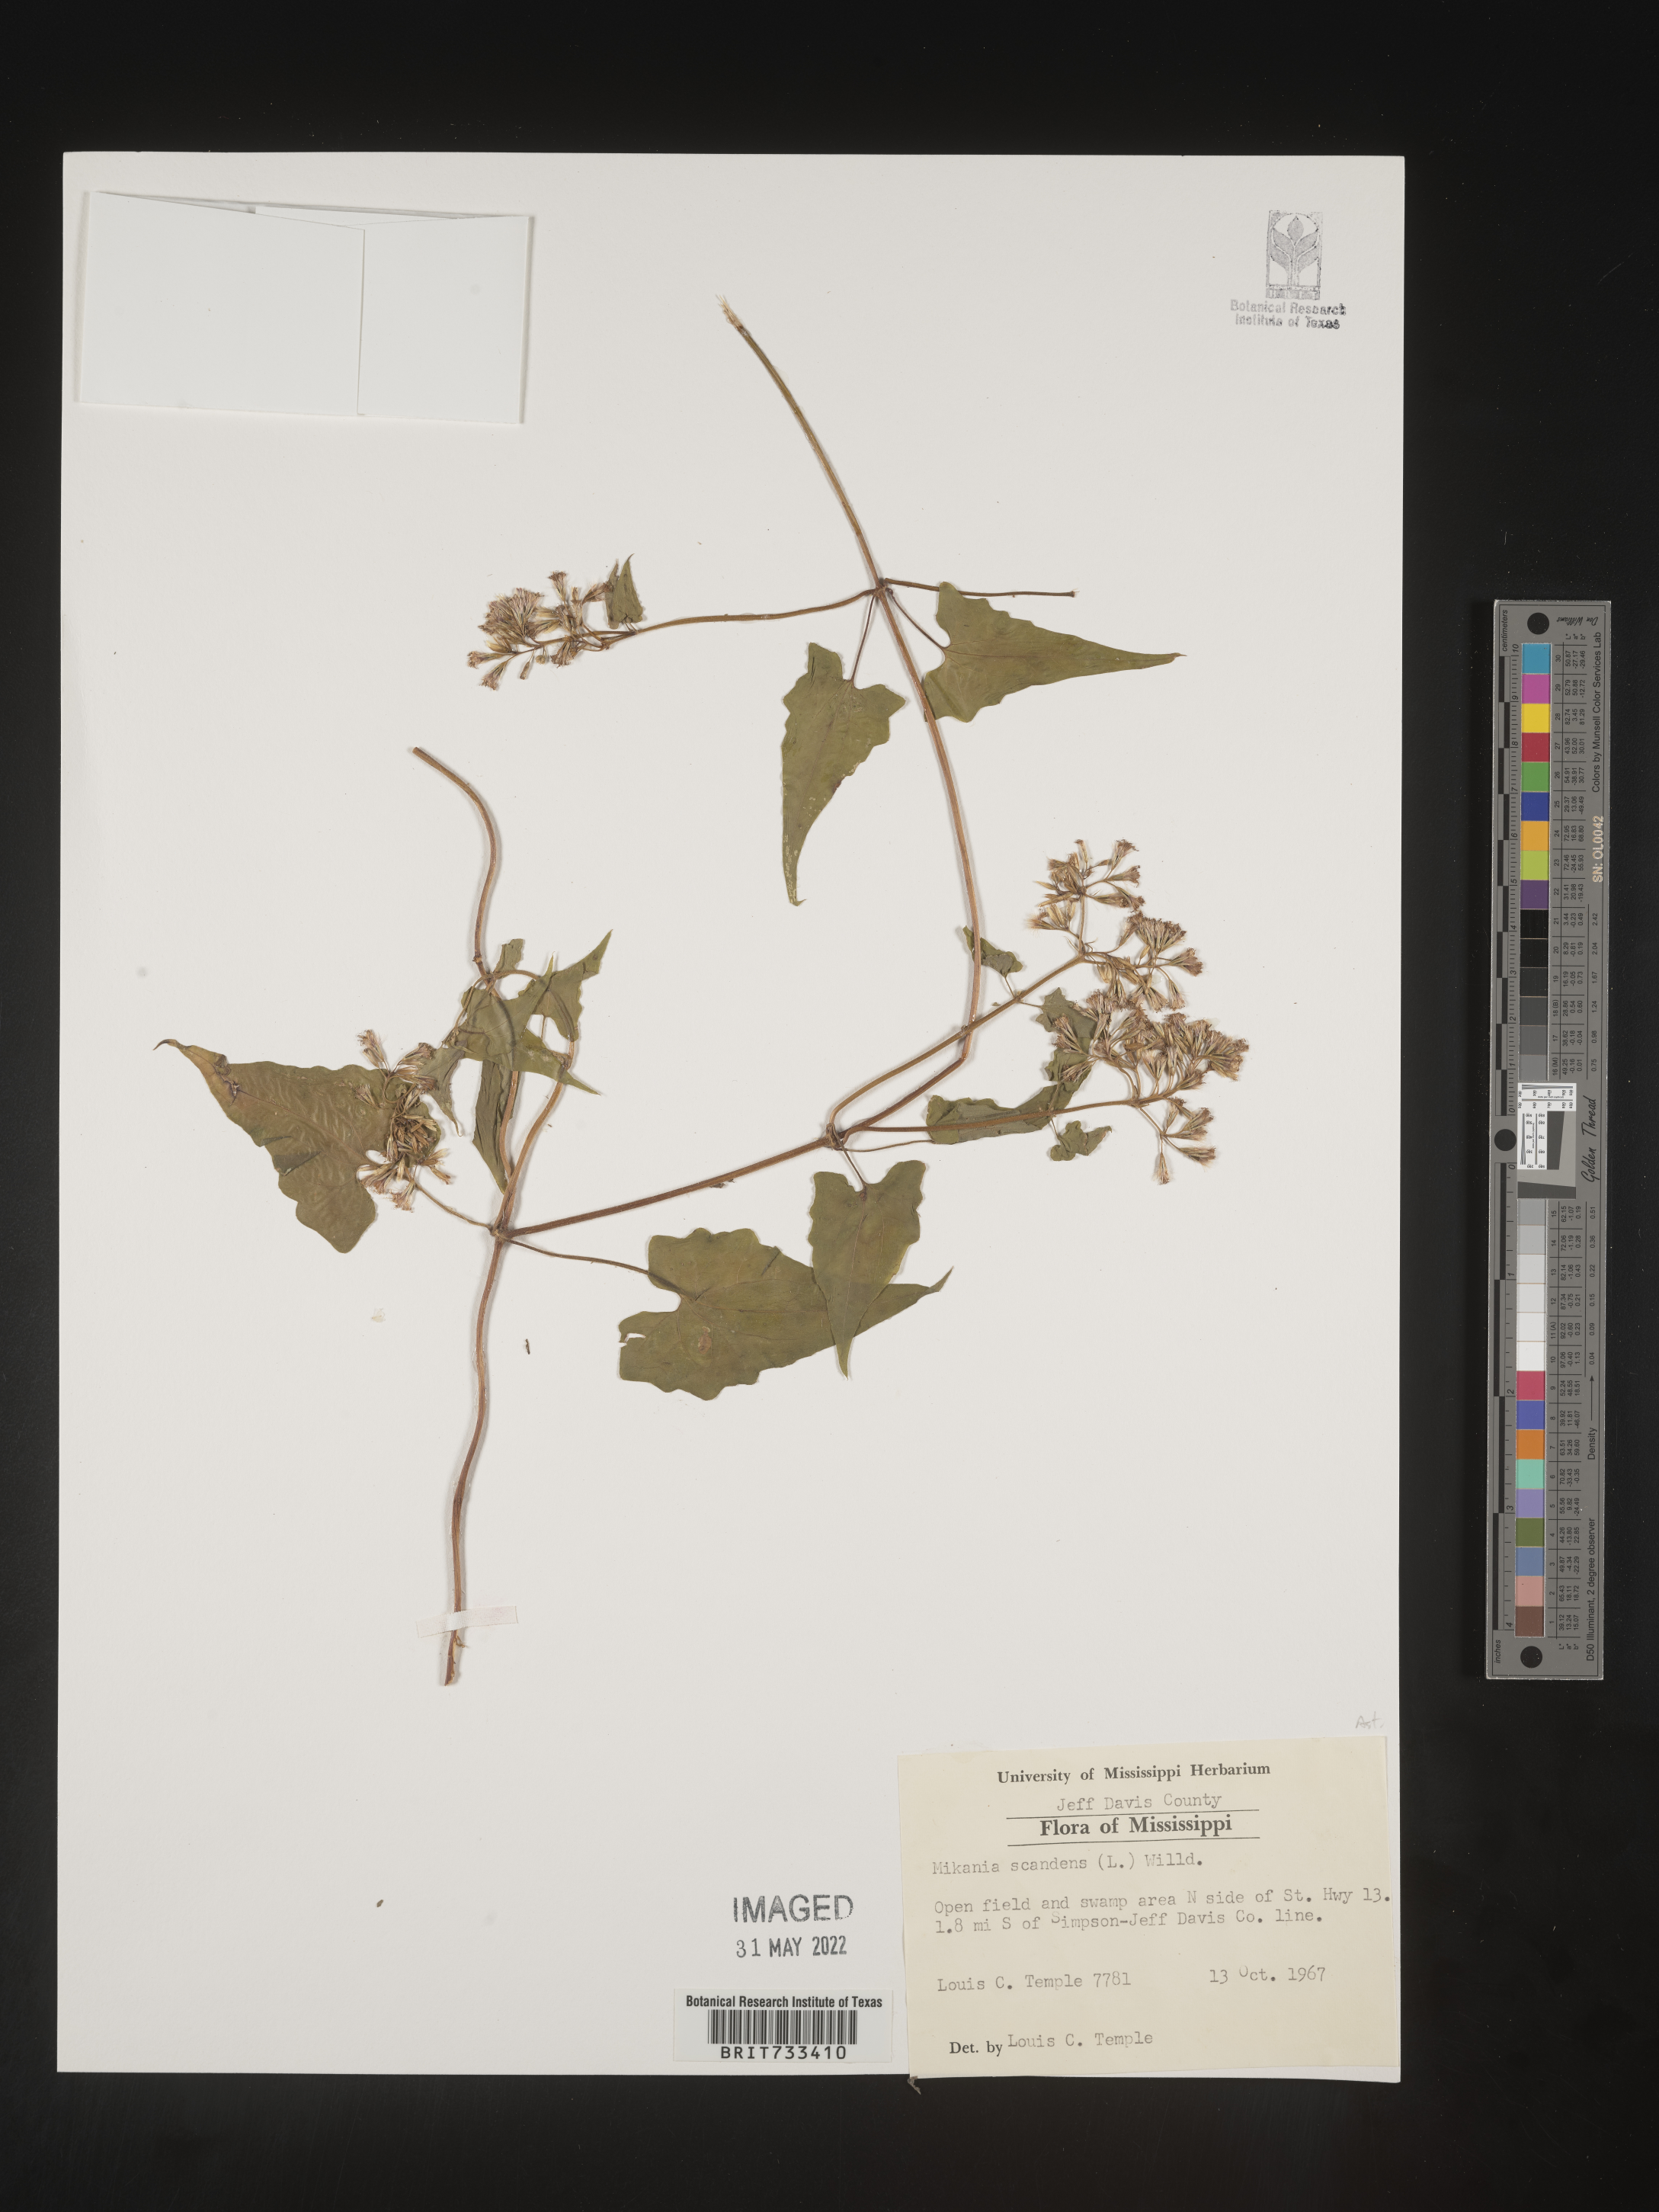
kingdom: Plantae
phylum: Tracheophyta
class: Magnoliopsida
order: Asterales
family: Asteraceae
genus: Mikania
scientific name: Mikania scandens
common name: Climbing hempvine
